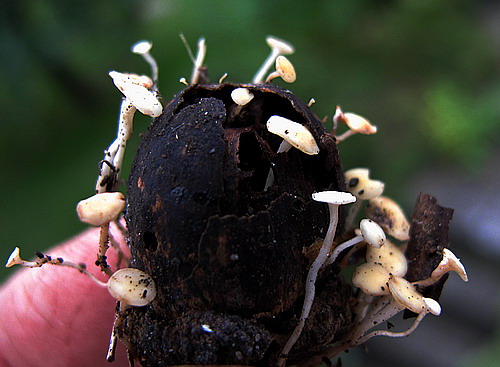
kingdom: Fungi
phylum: Ascomycota
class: Leotiomycetes
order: Helotiales
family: Helotiaceae
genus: Hymenoscyphus
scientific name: Hymenoscyphus fructigenus
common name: frugt-stilkskive
